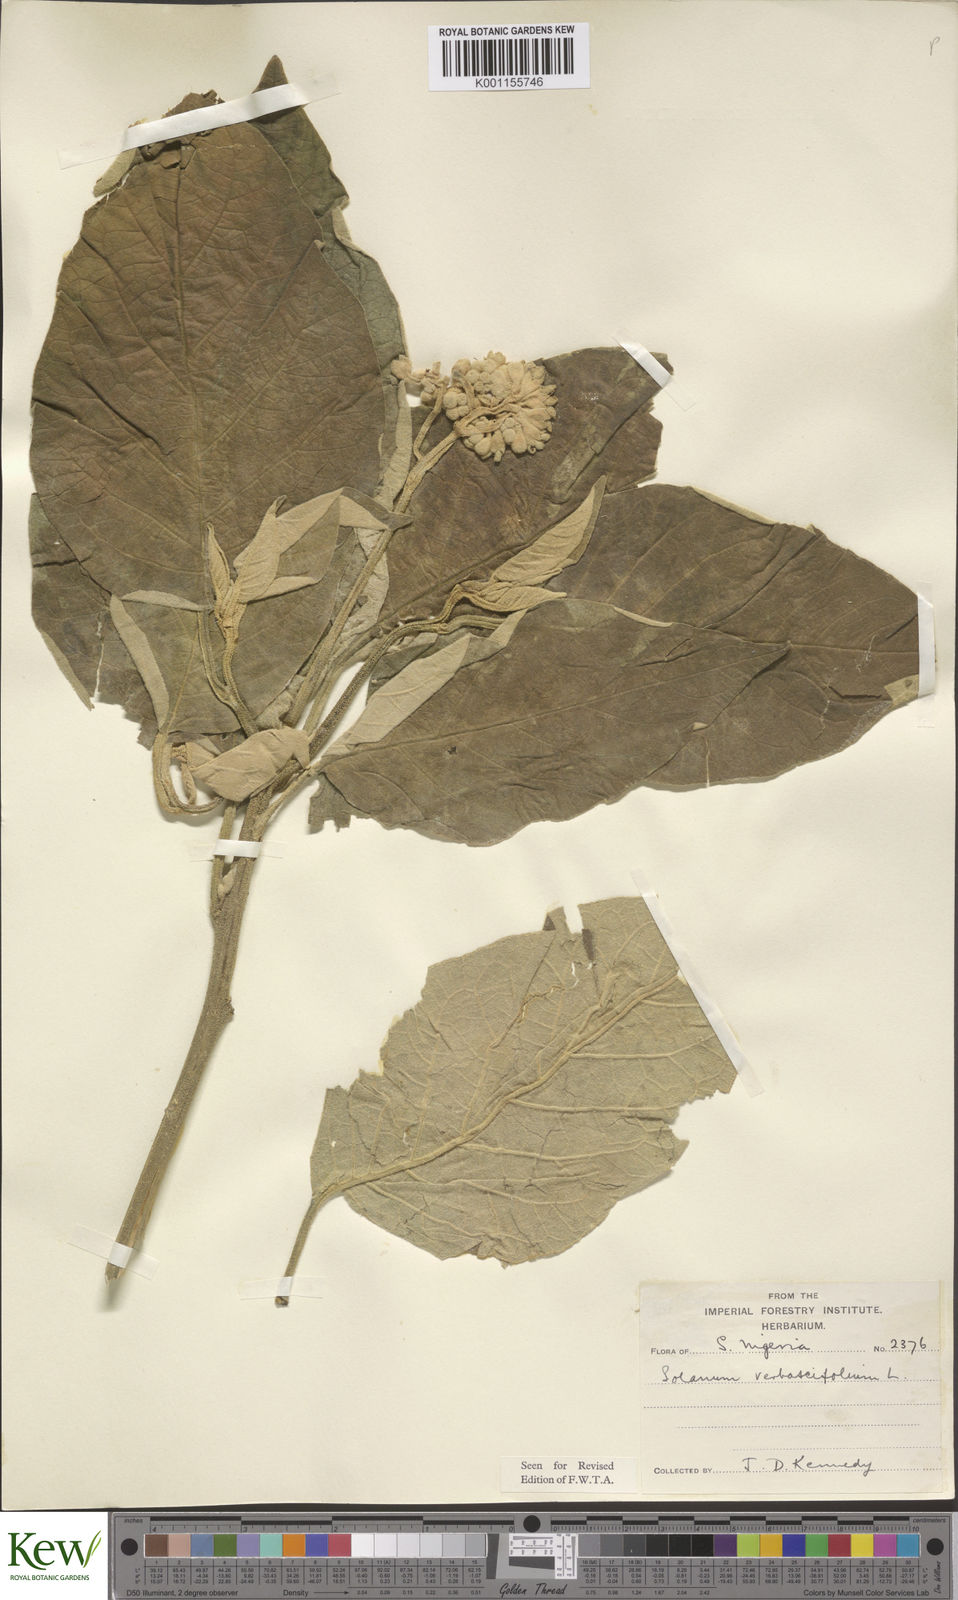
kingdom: Plantae
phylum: Tracheophyta
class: Magnoliopsida
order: Solanales
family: Solanaceae
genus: Solanum
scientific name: Solanum erianthum
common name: Tobacco-tree
